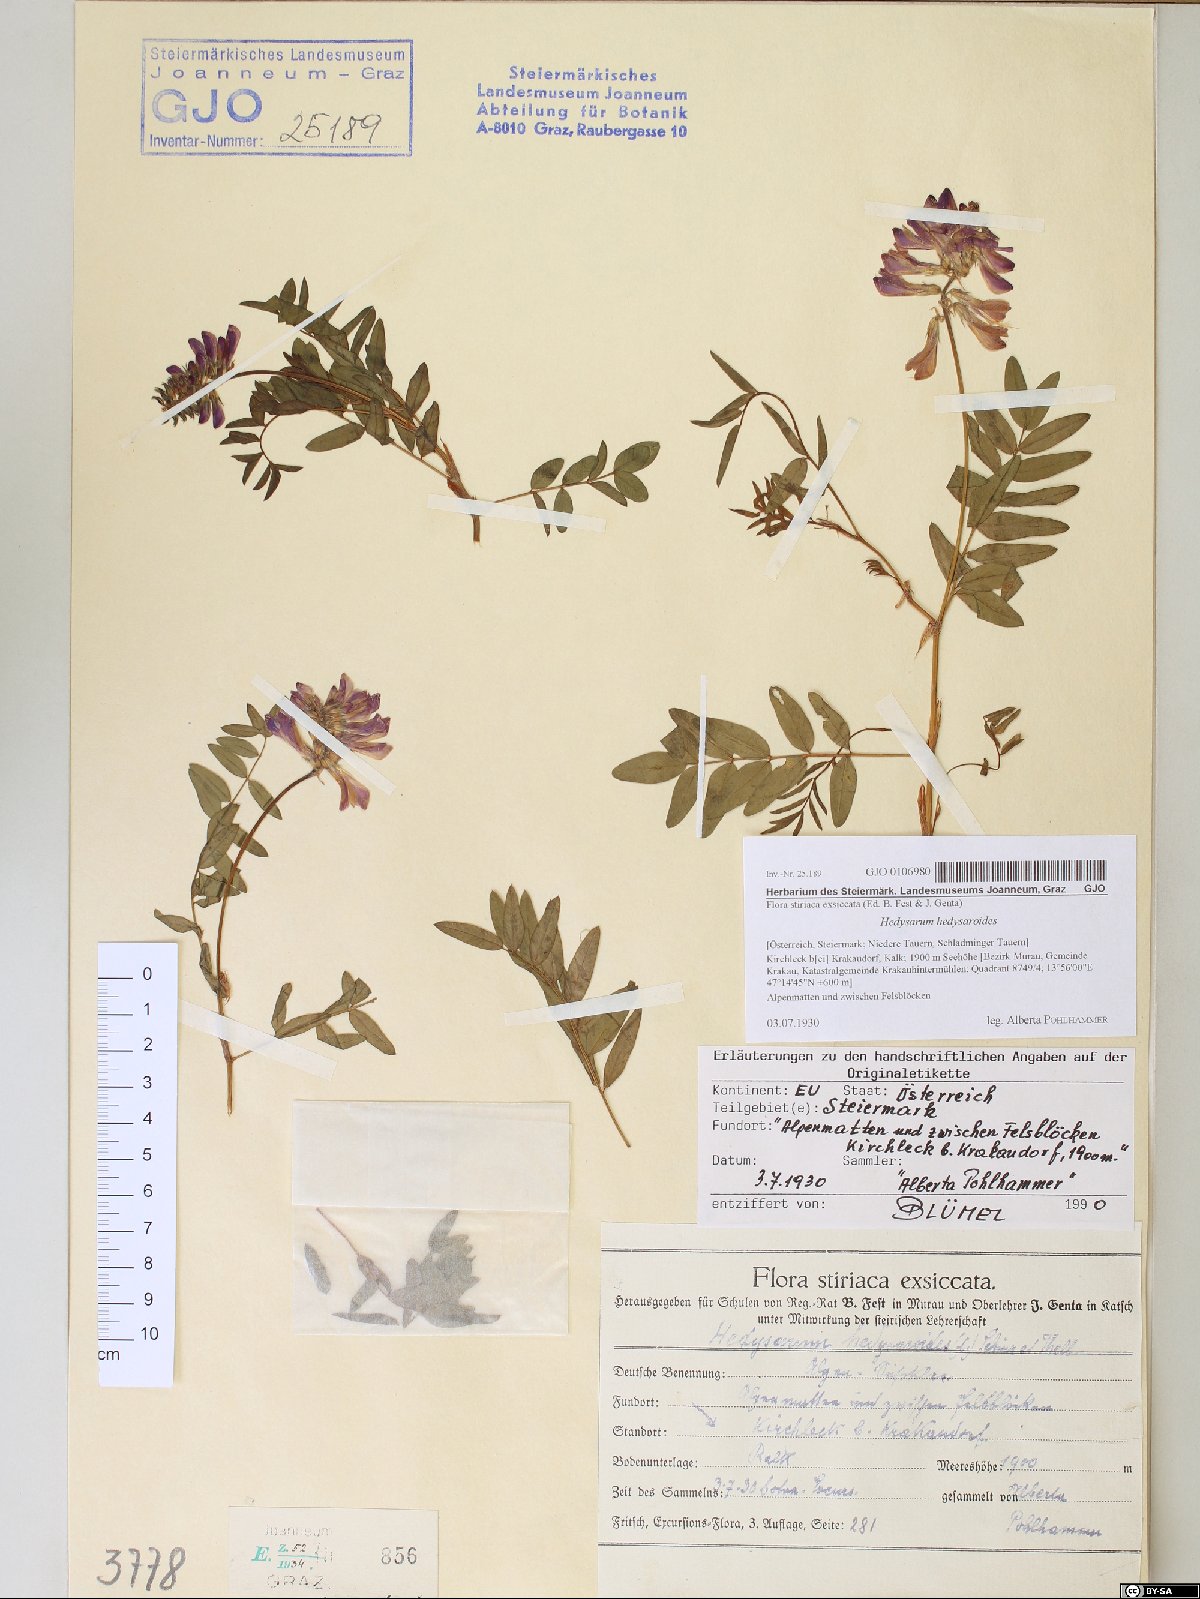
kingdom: Plantae
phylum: Tracheophyta
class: Magnoliopsida
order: Fabales
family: Fabaceae
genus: Hedysarum
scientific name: Hedysarum hedysaroides
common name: Alpine french-honeysuckle
